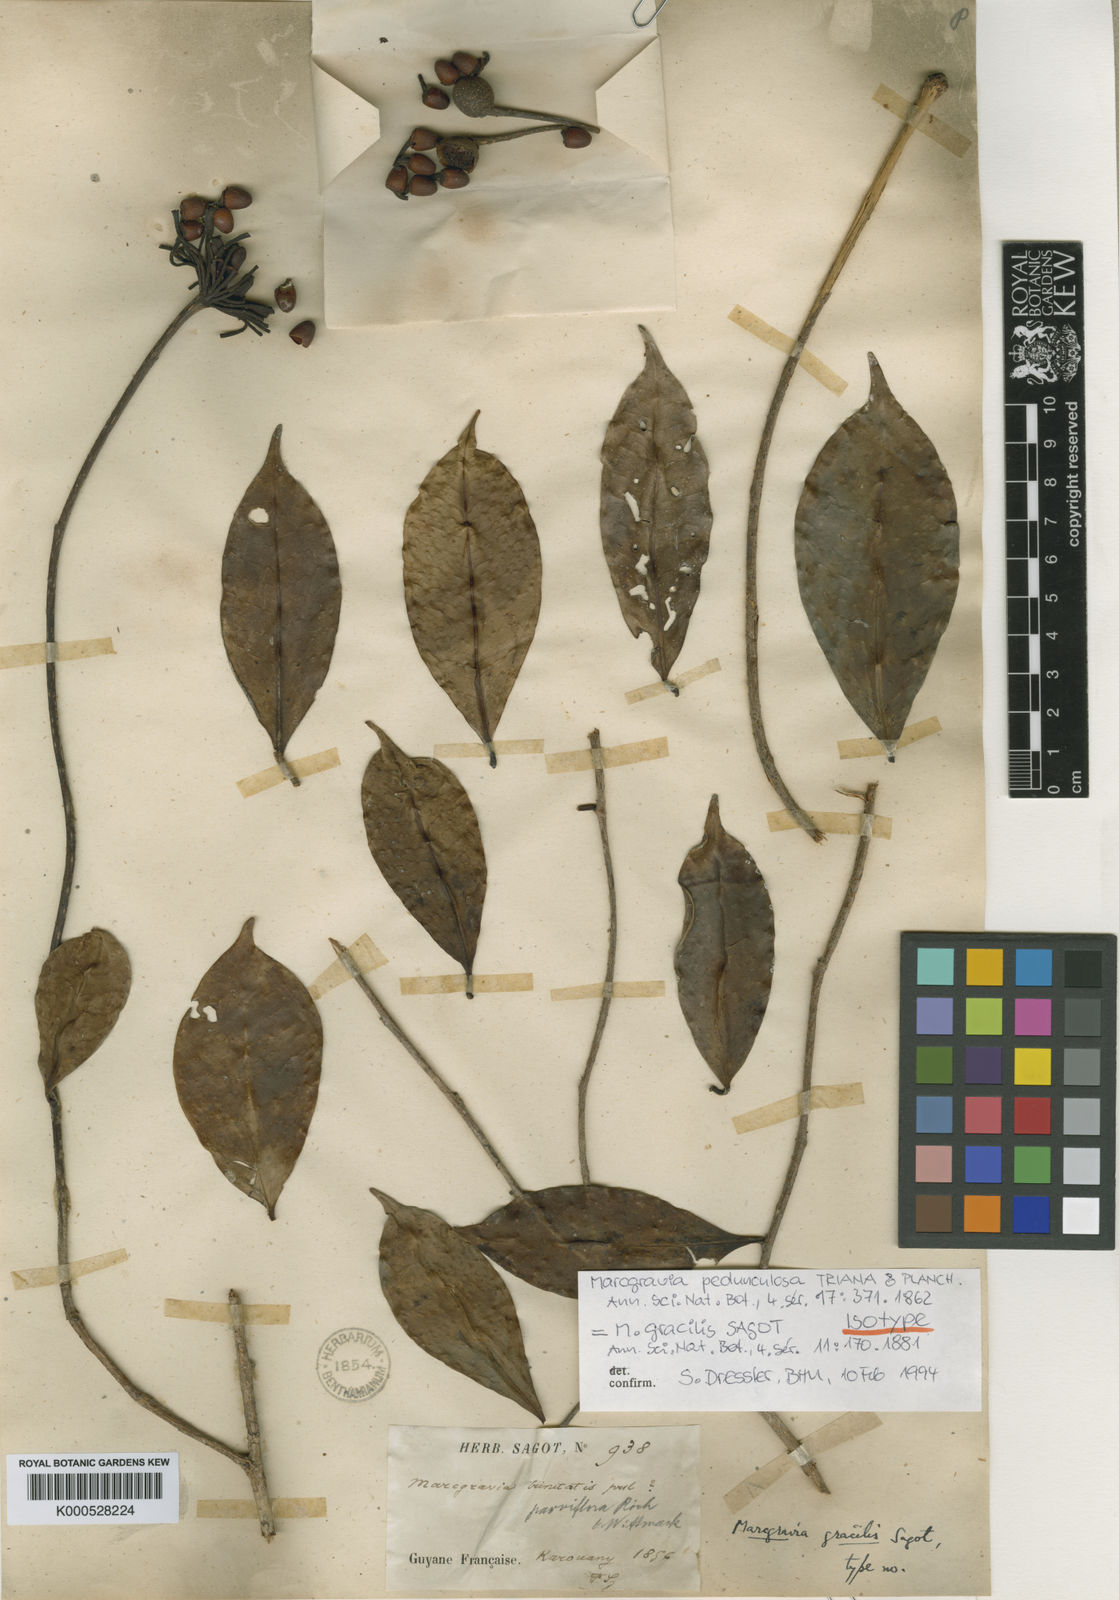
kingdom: Plantae
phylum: Tracheophyta
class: Magnoliopsida
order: Ericales
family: Marcgraviaceae
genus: Marcgravia
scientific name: Marcgravia pedunculosa
